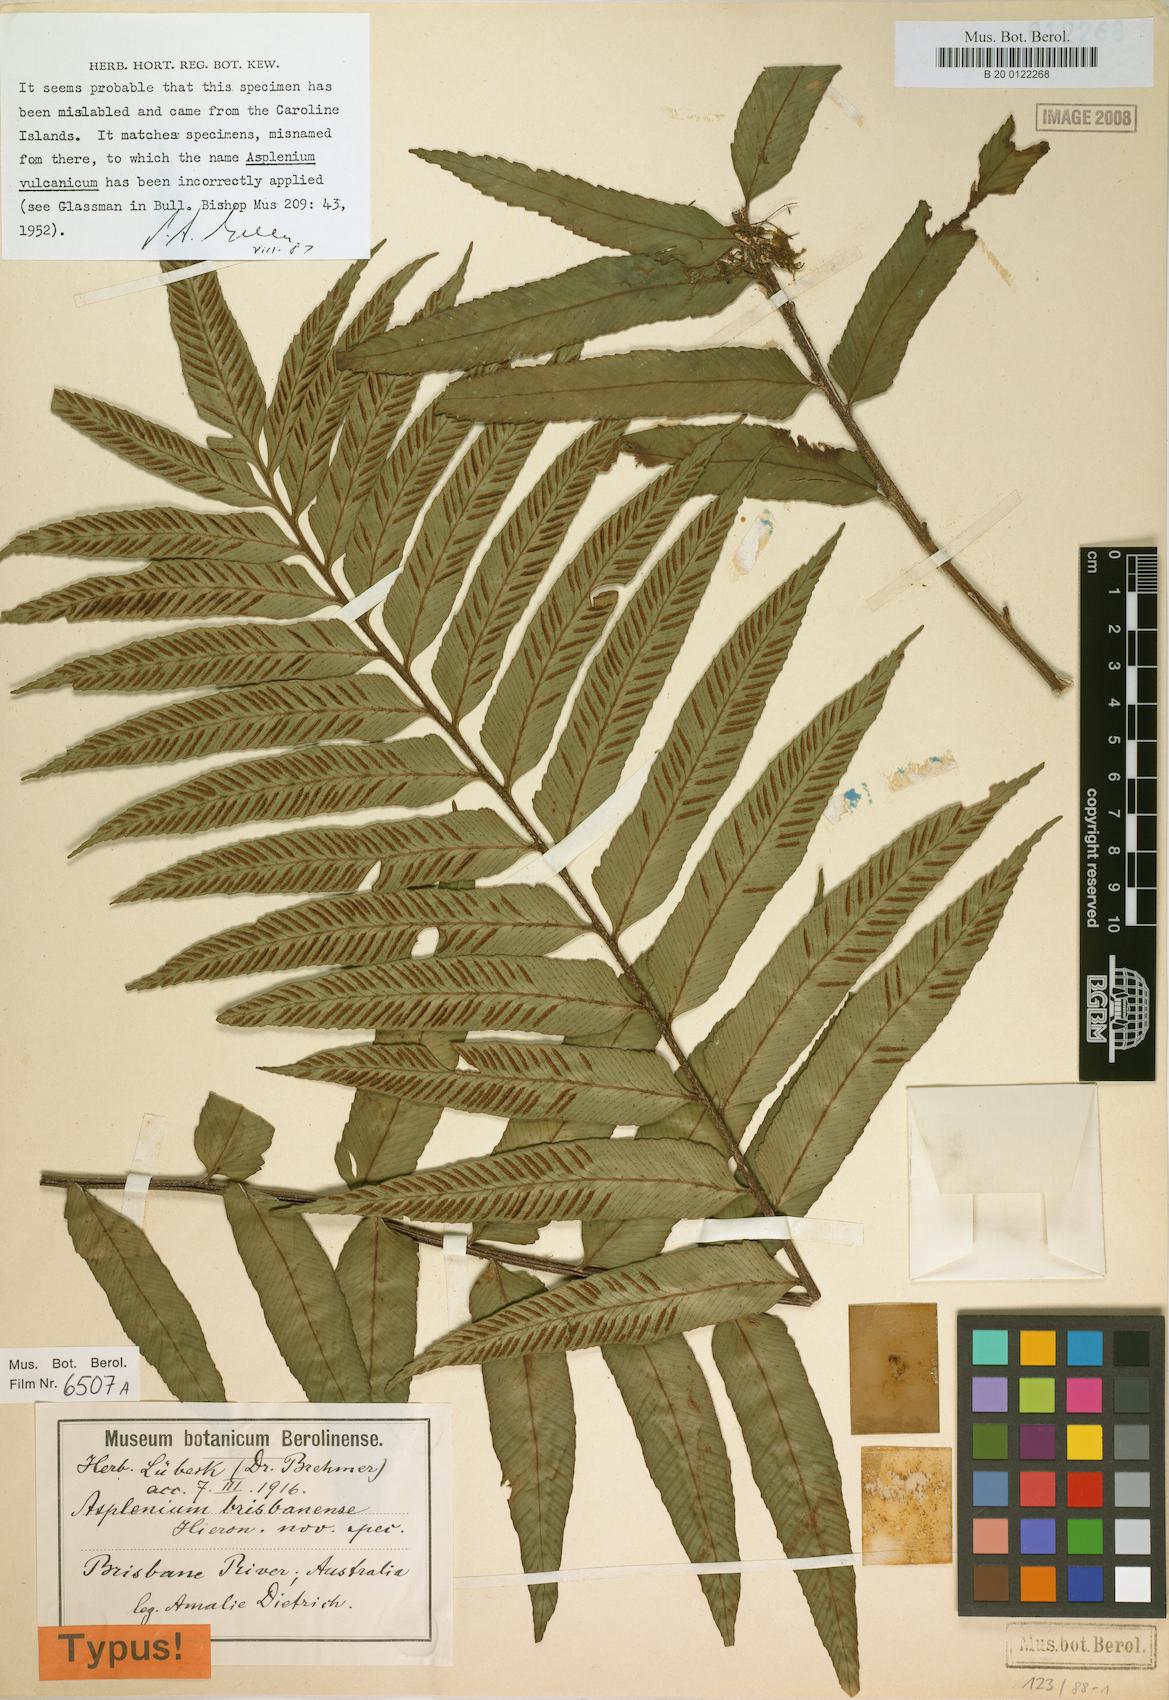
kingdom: Plantae
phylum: Tracheophyta
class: Polypodiopsida
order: Polypodiales
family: Aspleniaceae
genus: Asplenium
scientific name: Asplenium vulcanicum
